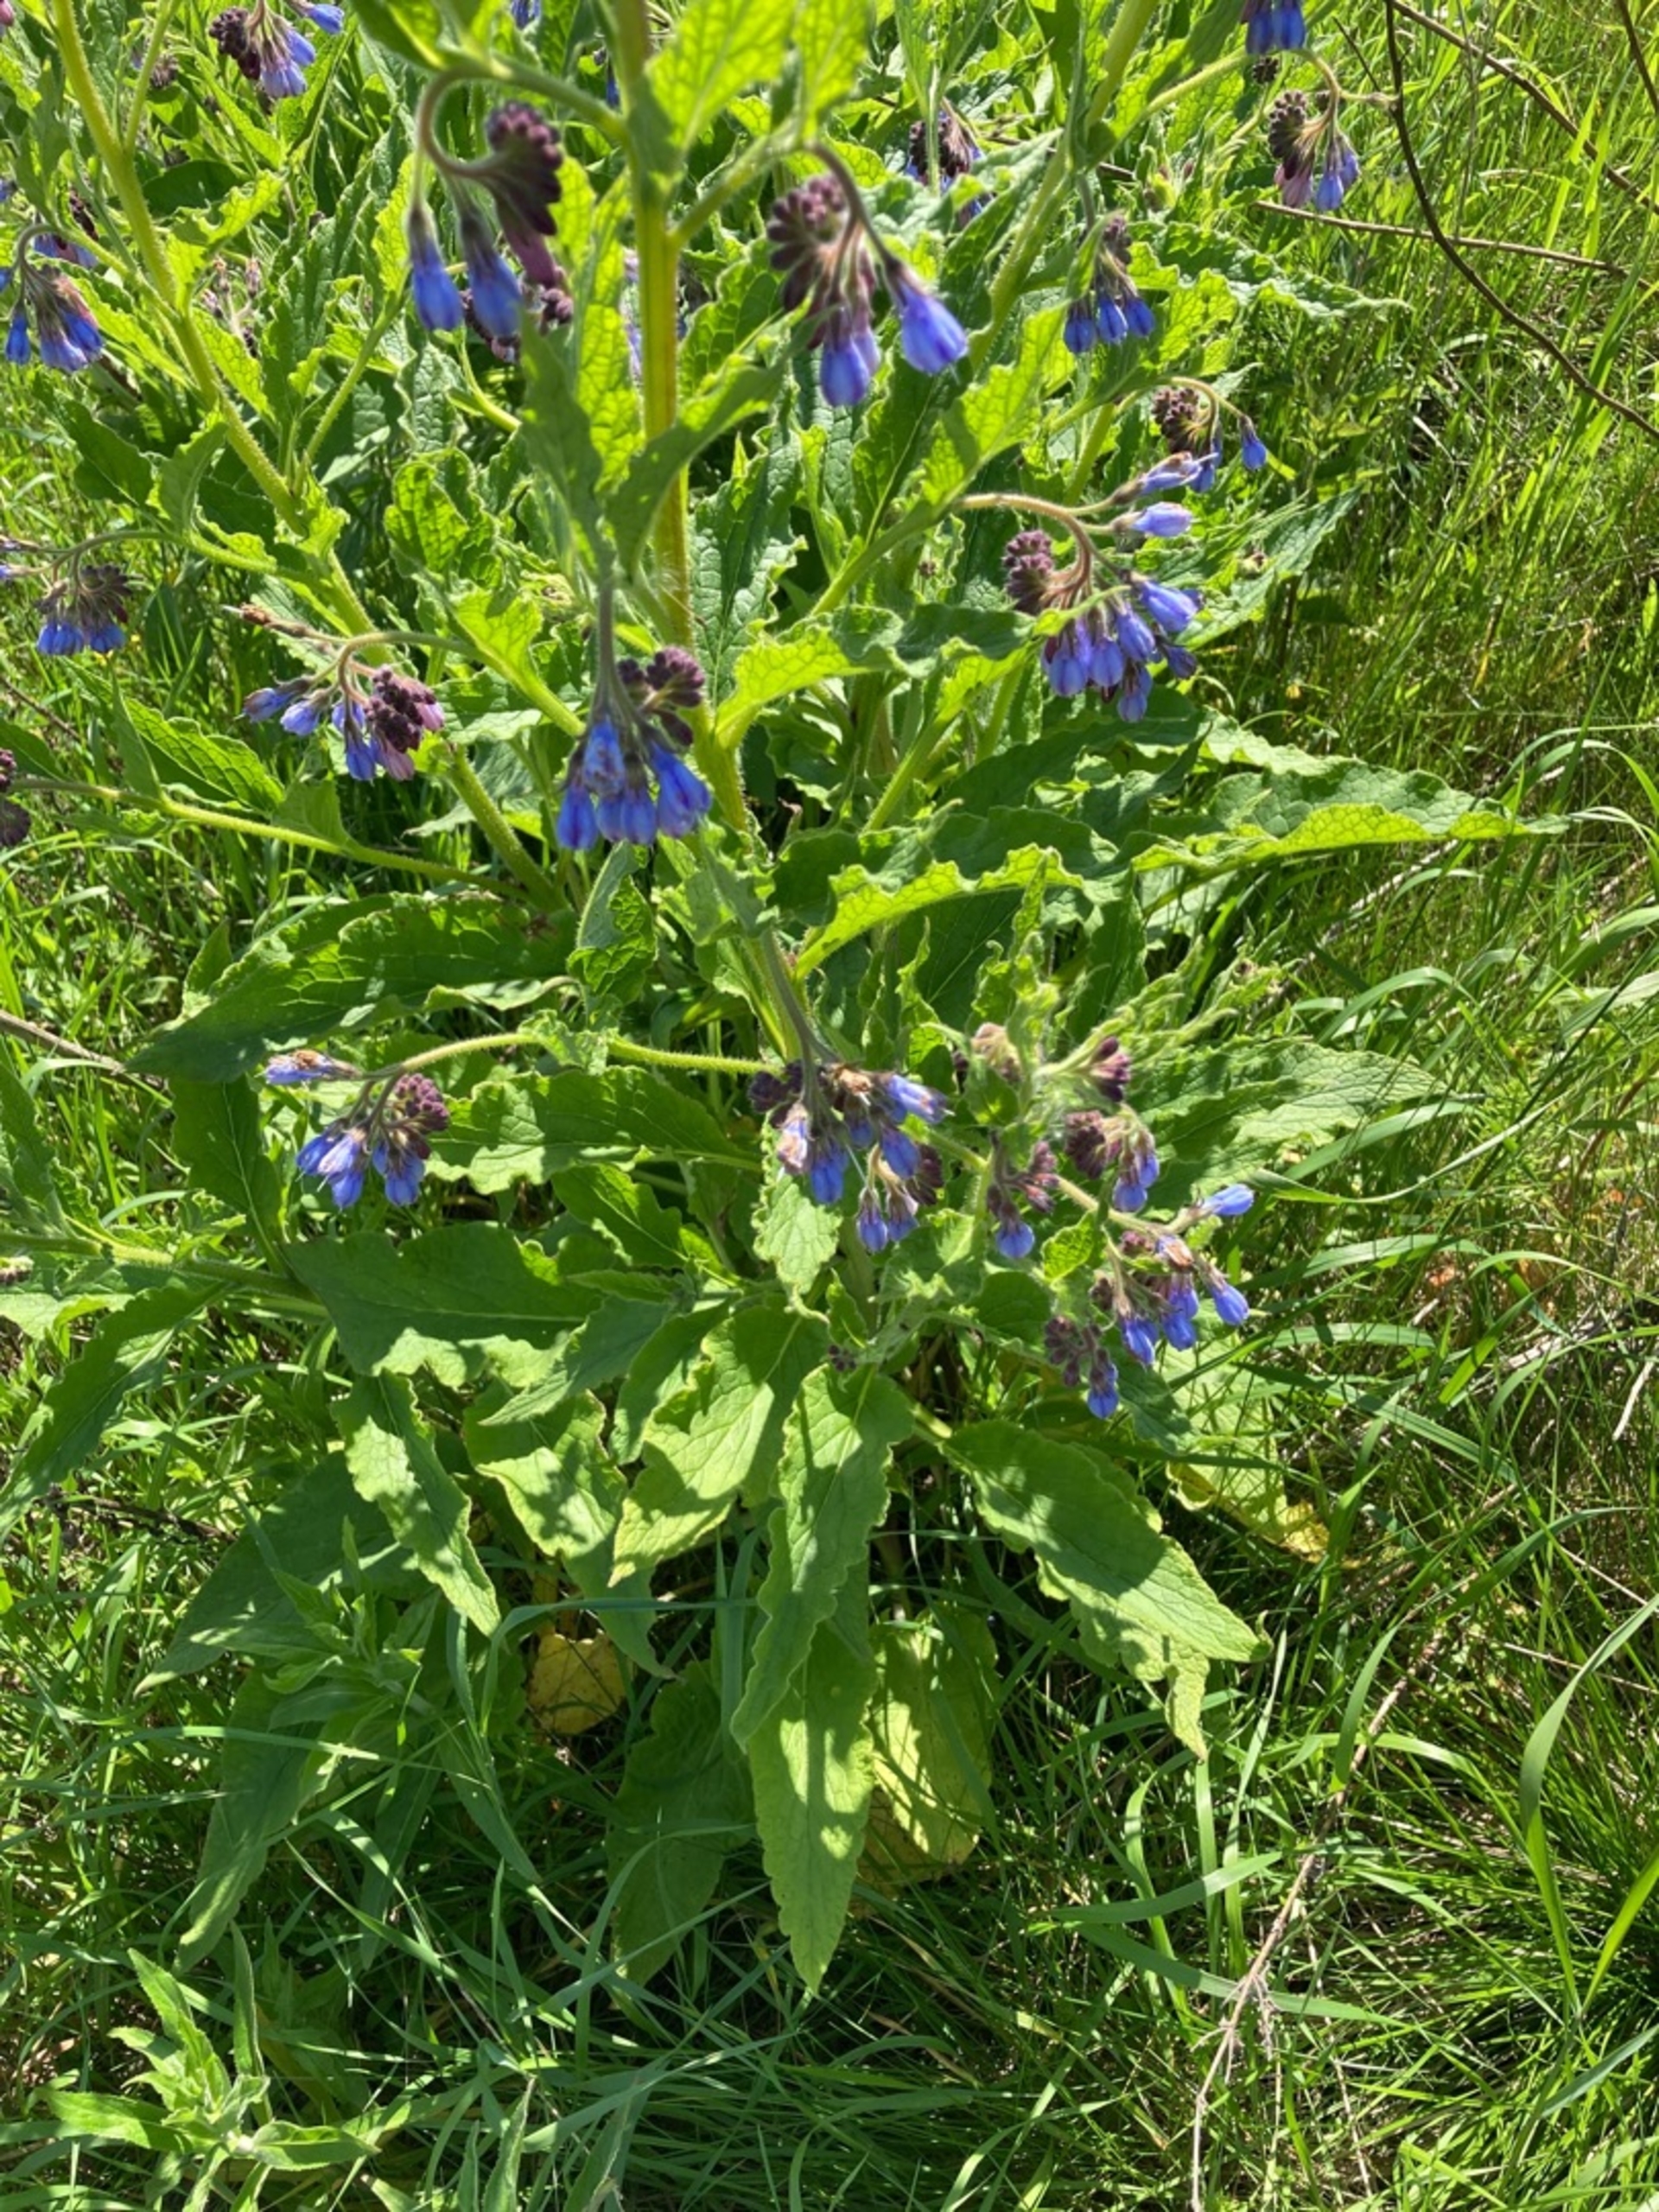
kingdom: Plantae
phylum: Tracheophyta
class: Magnoliopsida
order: Boraginales
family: Boraginaceae
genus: Symphytum
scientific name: Symphytum uplandicum
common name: Foder-kulsukker
